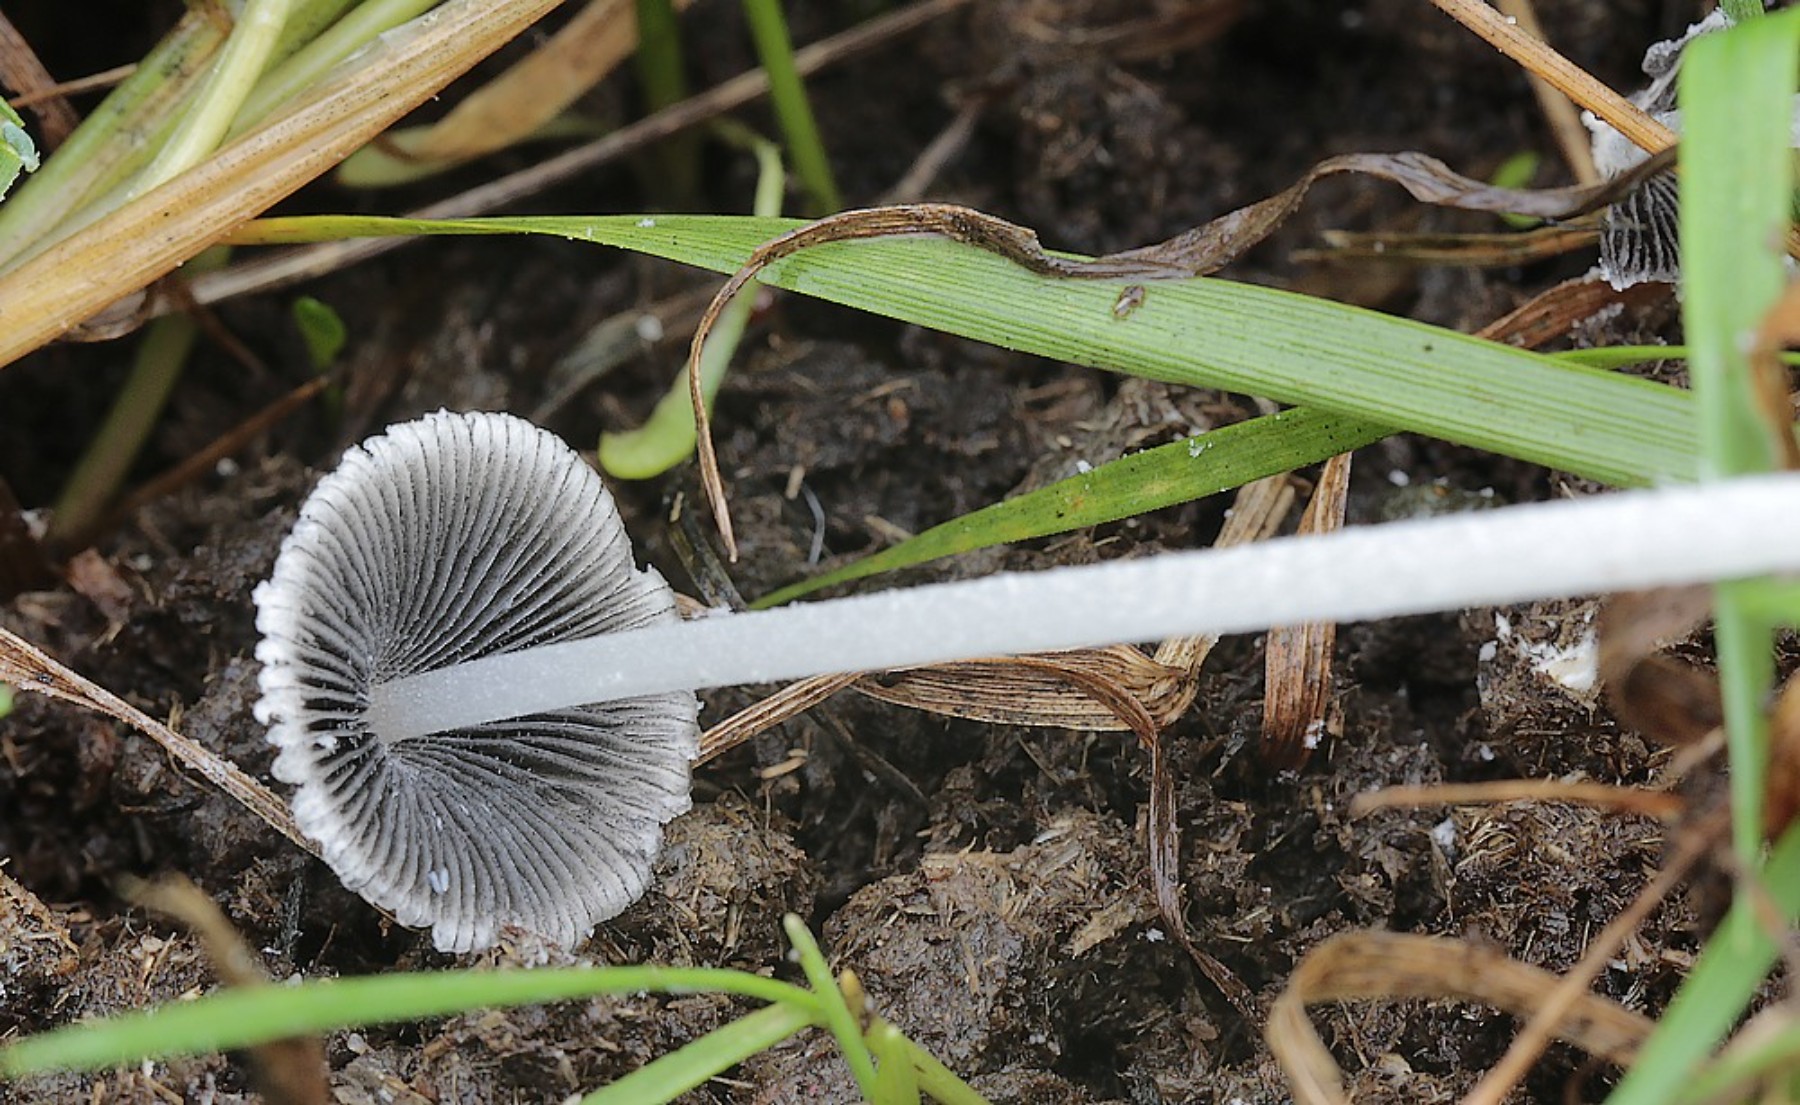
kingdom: Fungi
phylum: Basidiomycota
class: Agaricomycetes
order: Agaricales
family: Psathyrellaceae
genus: Coprinopsis
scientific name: Coprinopsis nivea
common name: snehvid blækhat
